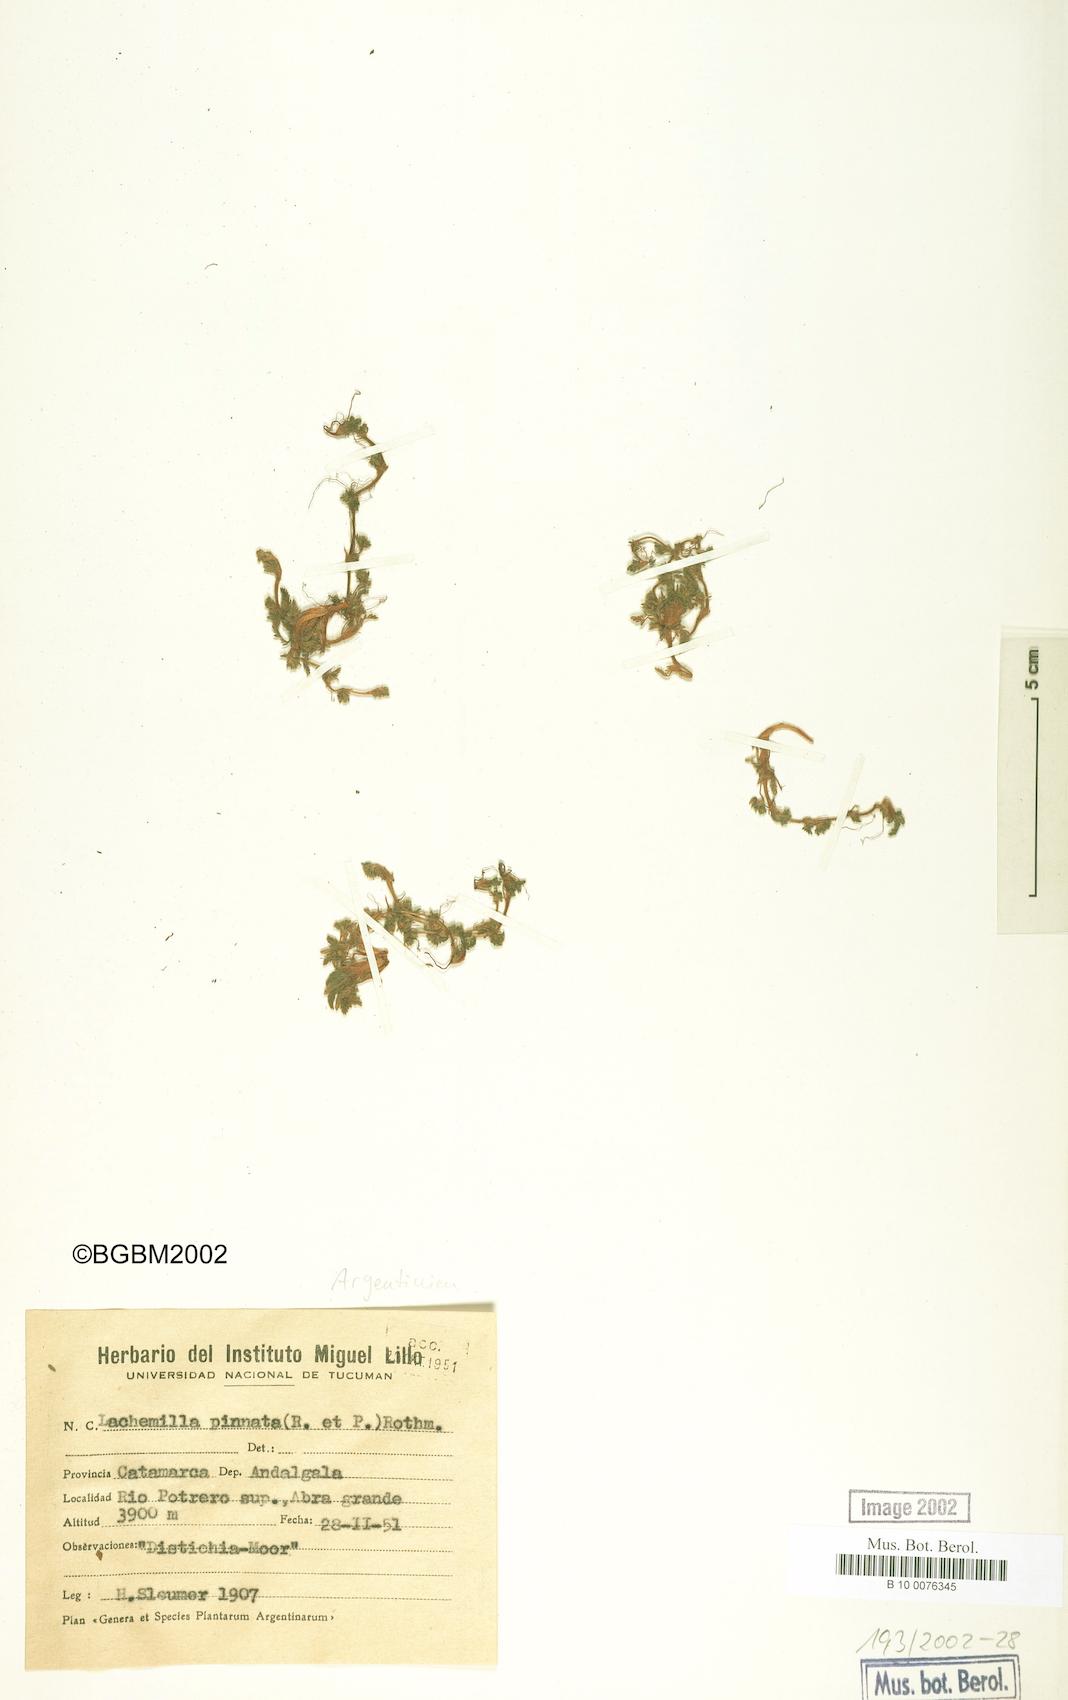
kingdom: Plantae
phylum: Tracheophyta
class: Magnoliopsida
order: Rosales
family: Rosaceae
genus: Lachemilla
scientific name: Lachemilla pinnata
